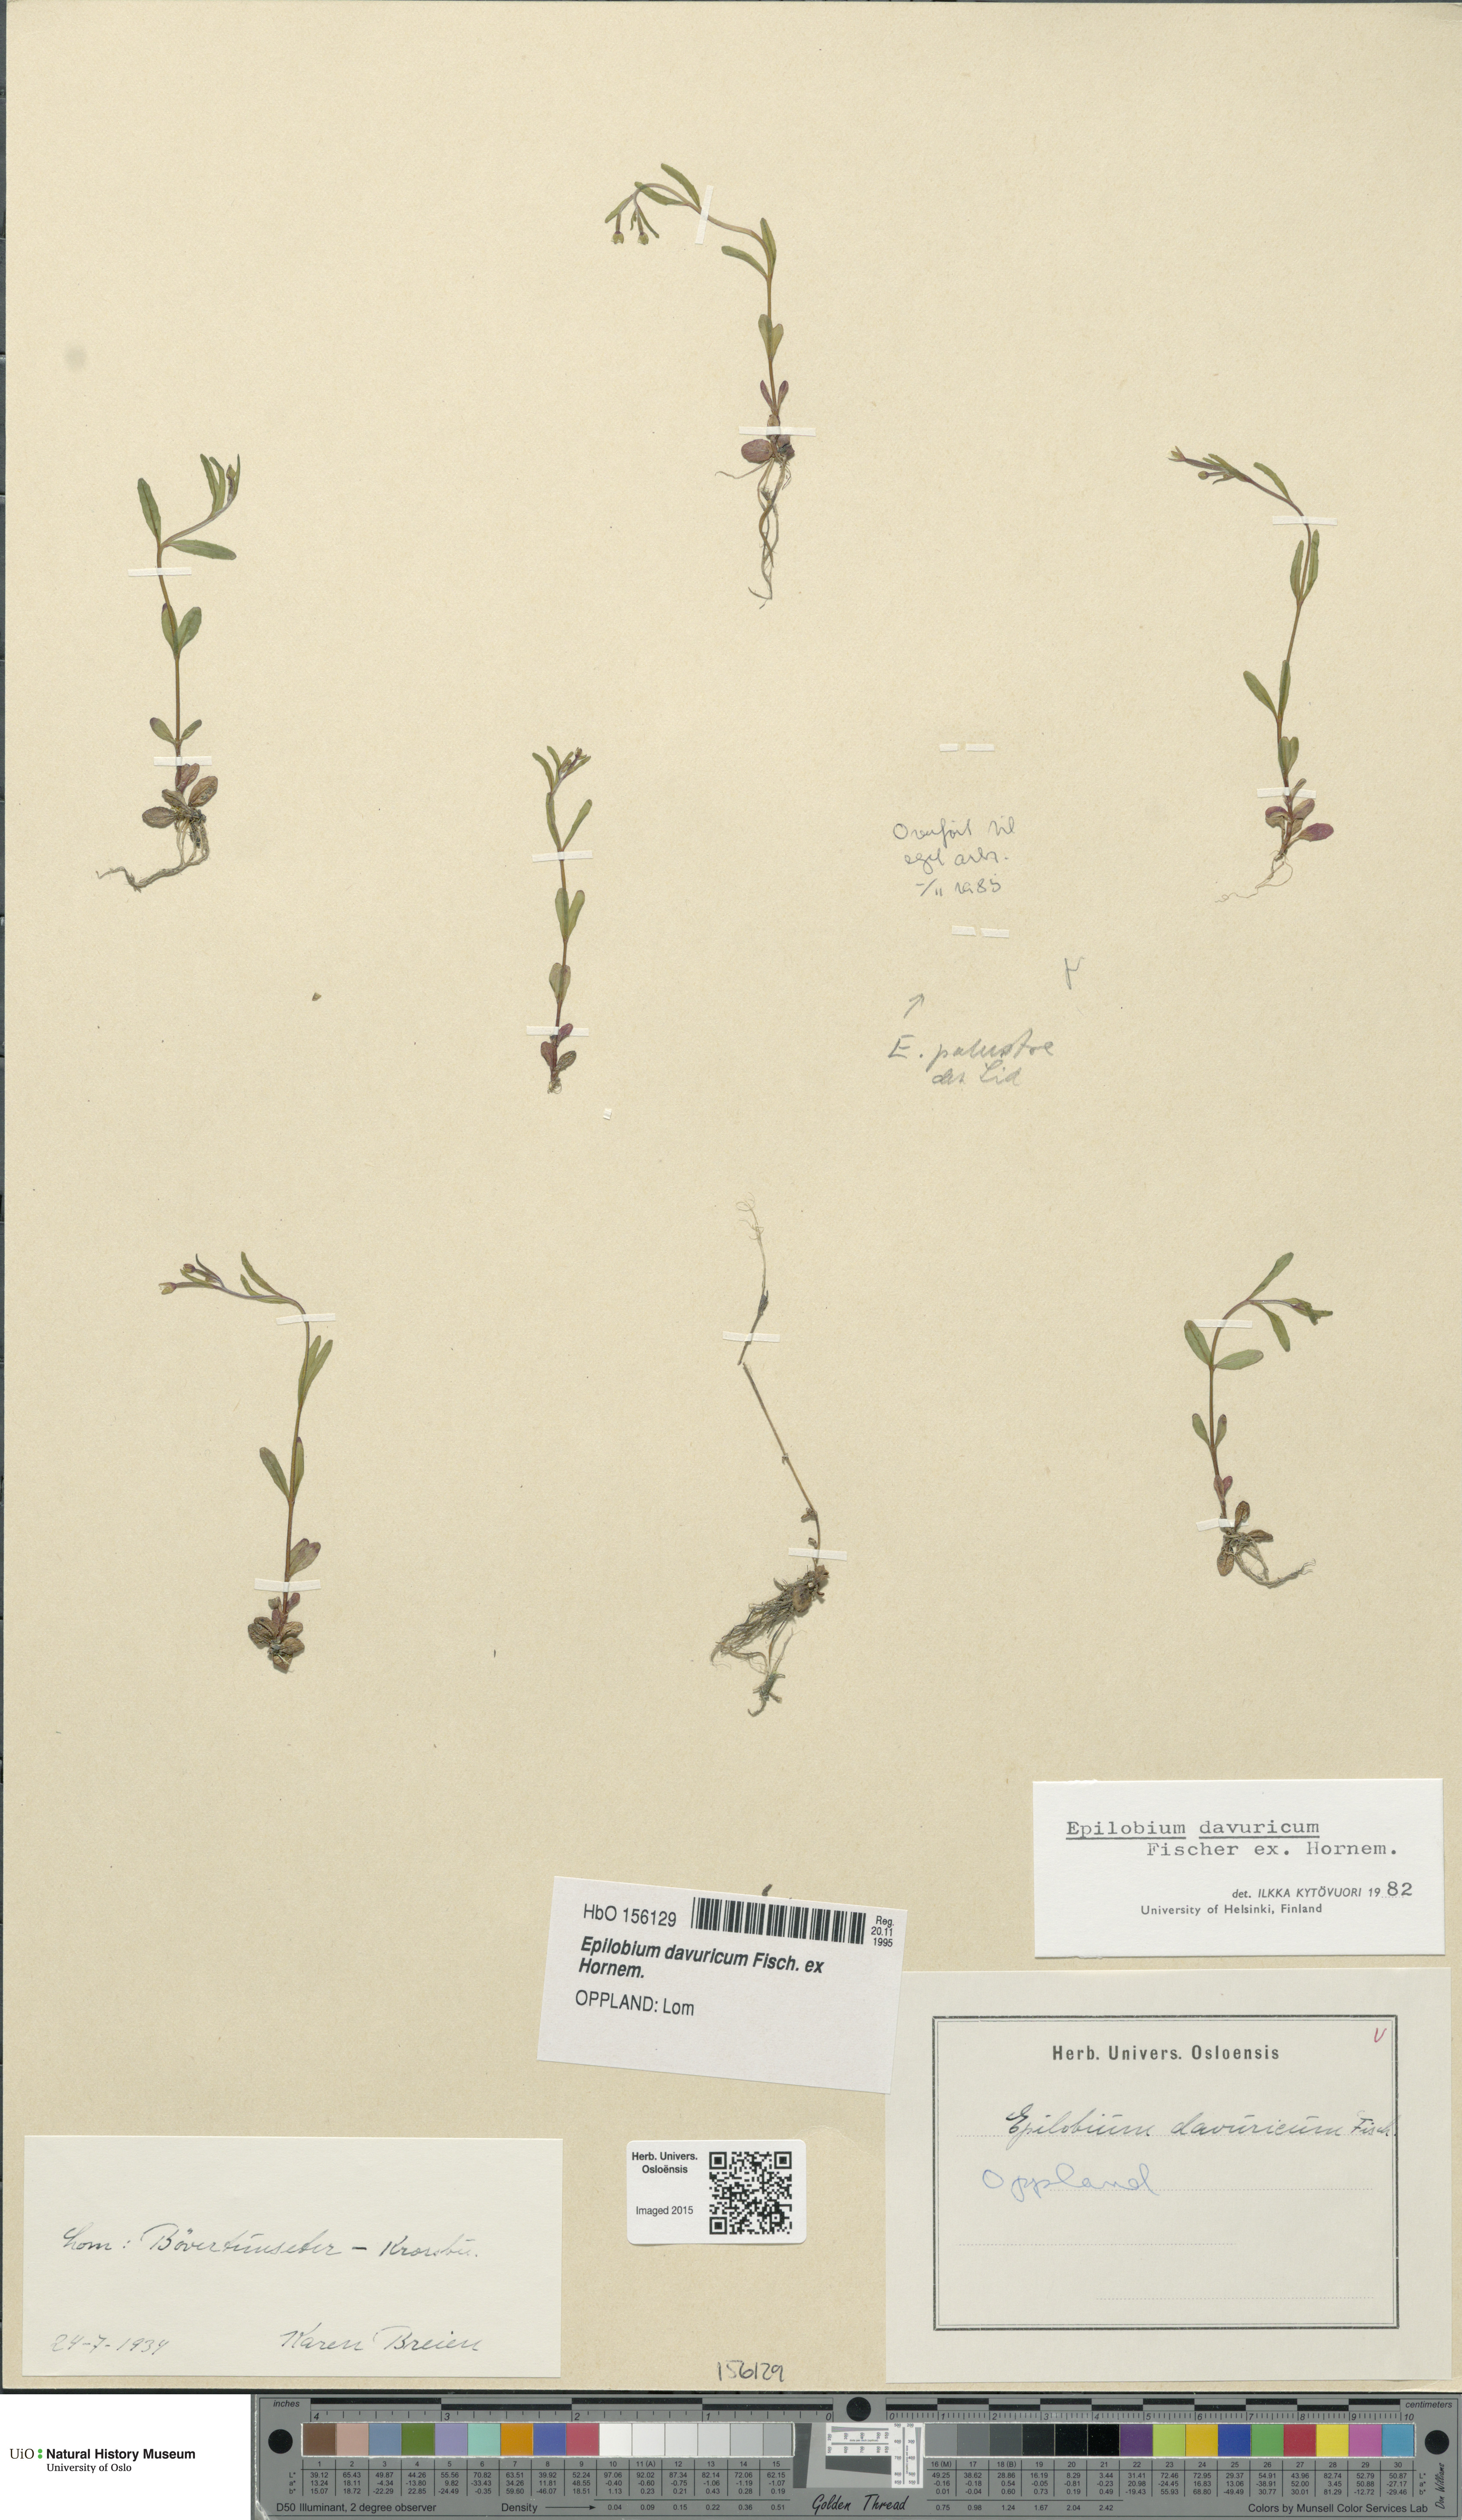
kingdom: Plantae
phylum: Tracheophyta
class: Magnoliopsida
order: Myrtales
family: Onagraceae
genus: Epilobium
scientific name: Epilobium davuricum
